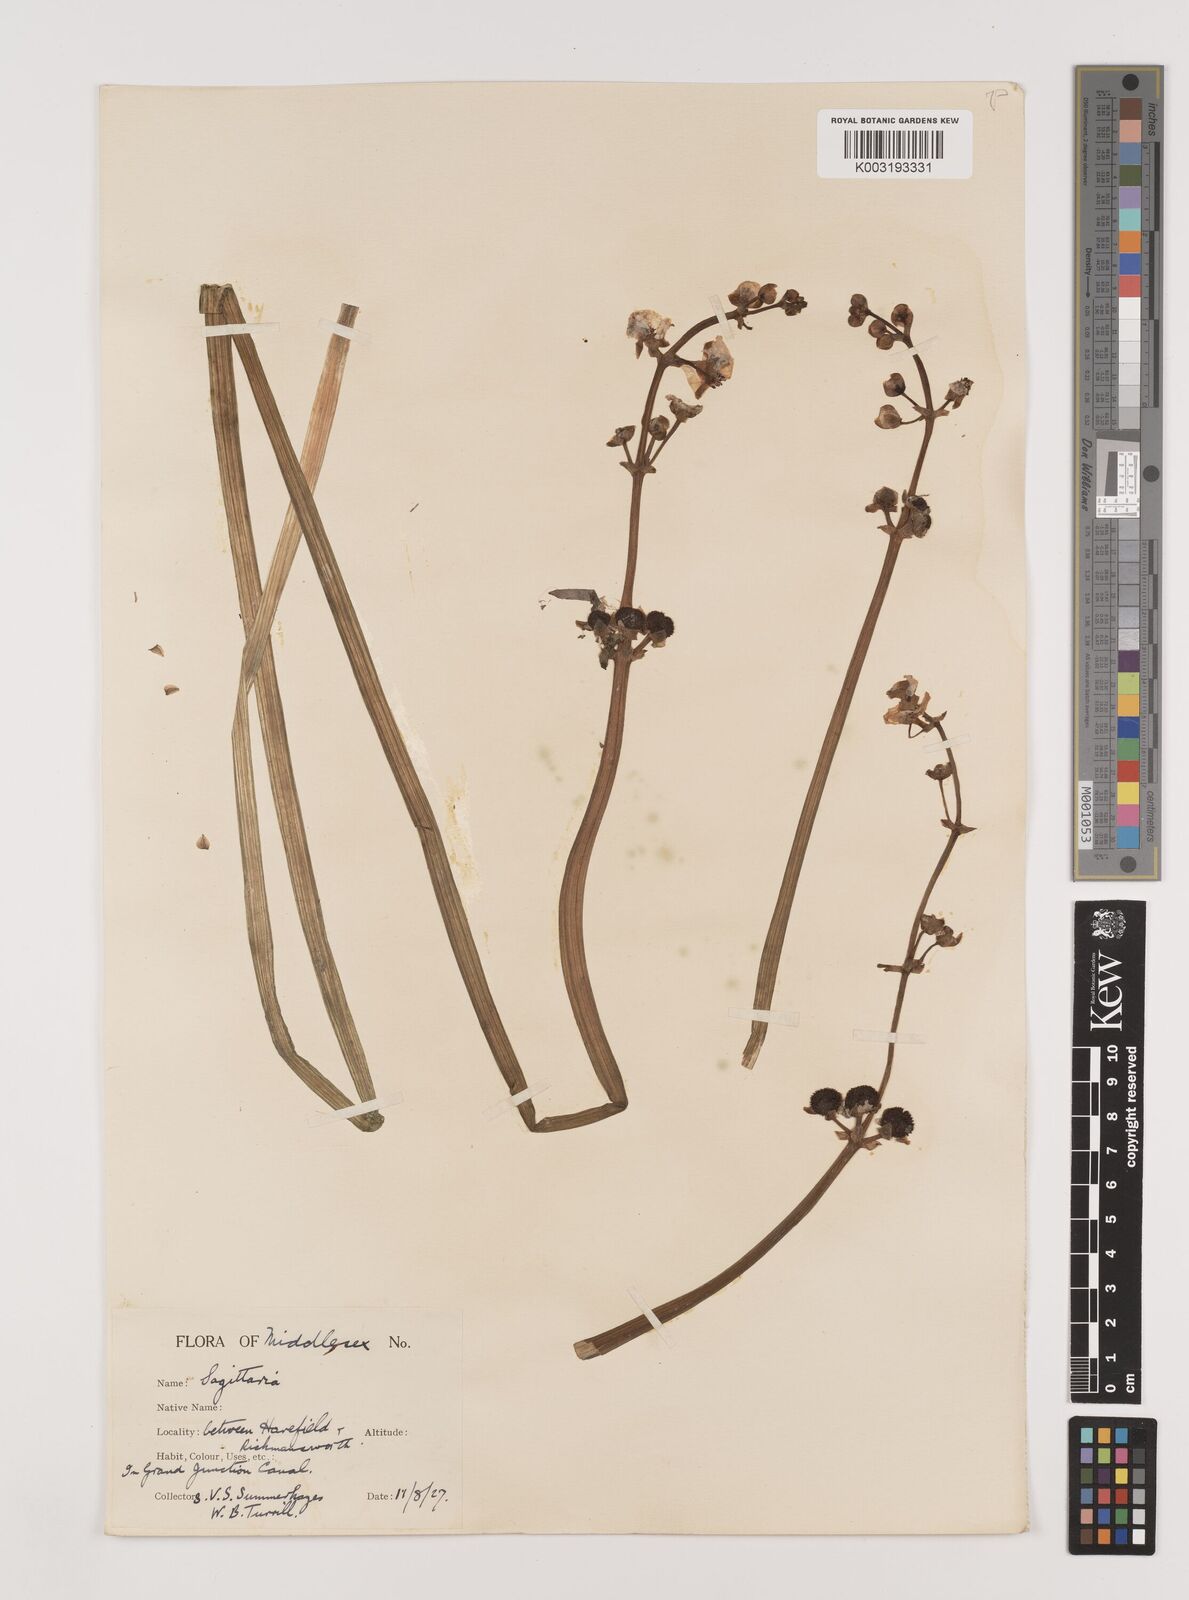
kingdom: Plantae
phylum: Tracheophyta
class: Liliopsida
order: Alismatales
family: Alismataceae
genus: Sagittaria
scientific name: Sagittaria sagittifolia
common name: Arrowhead
